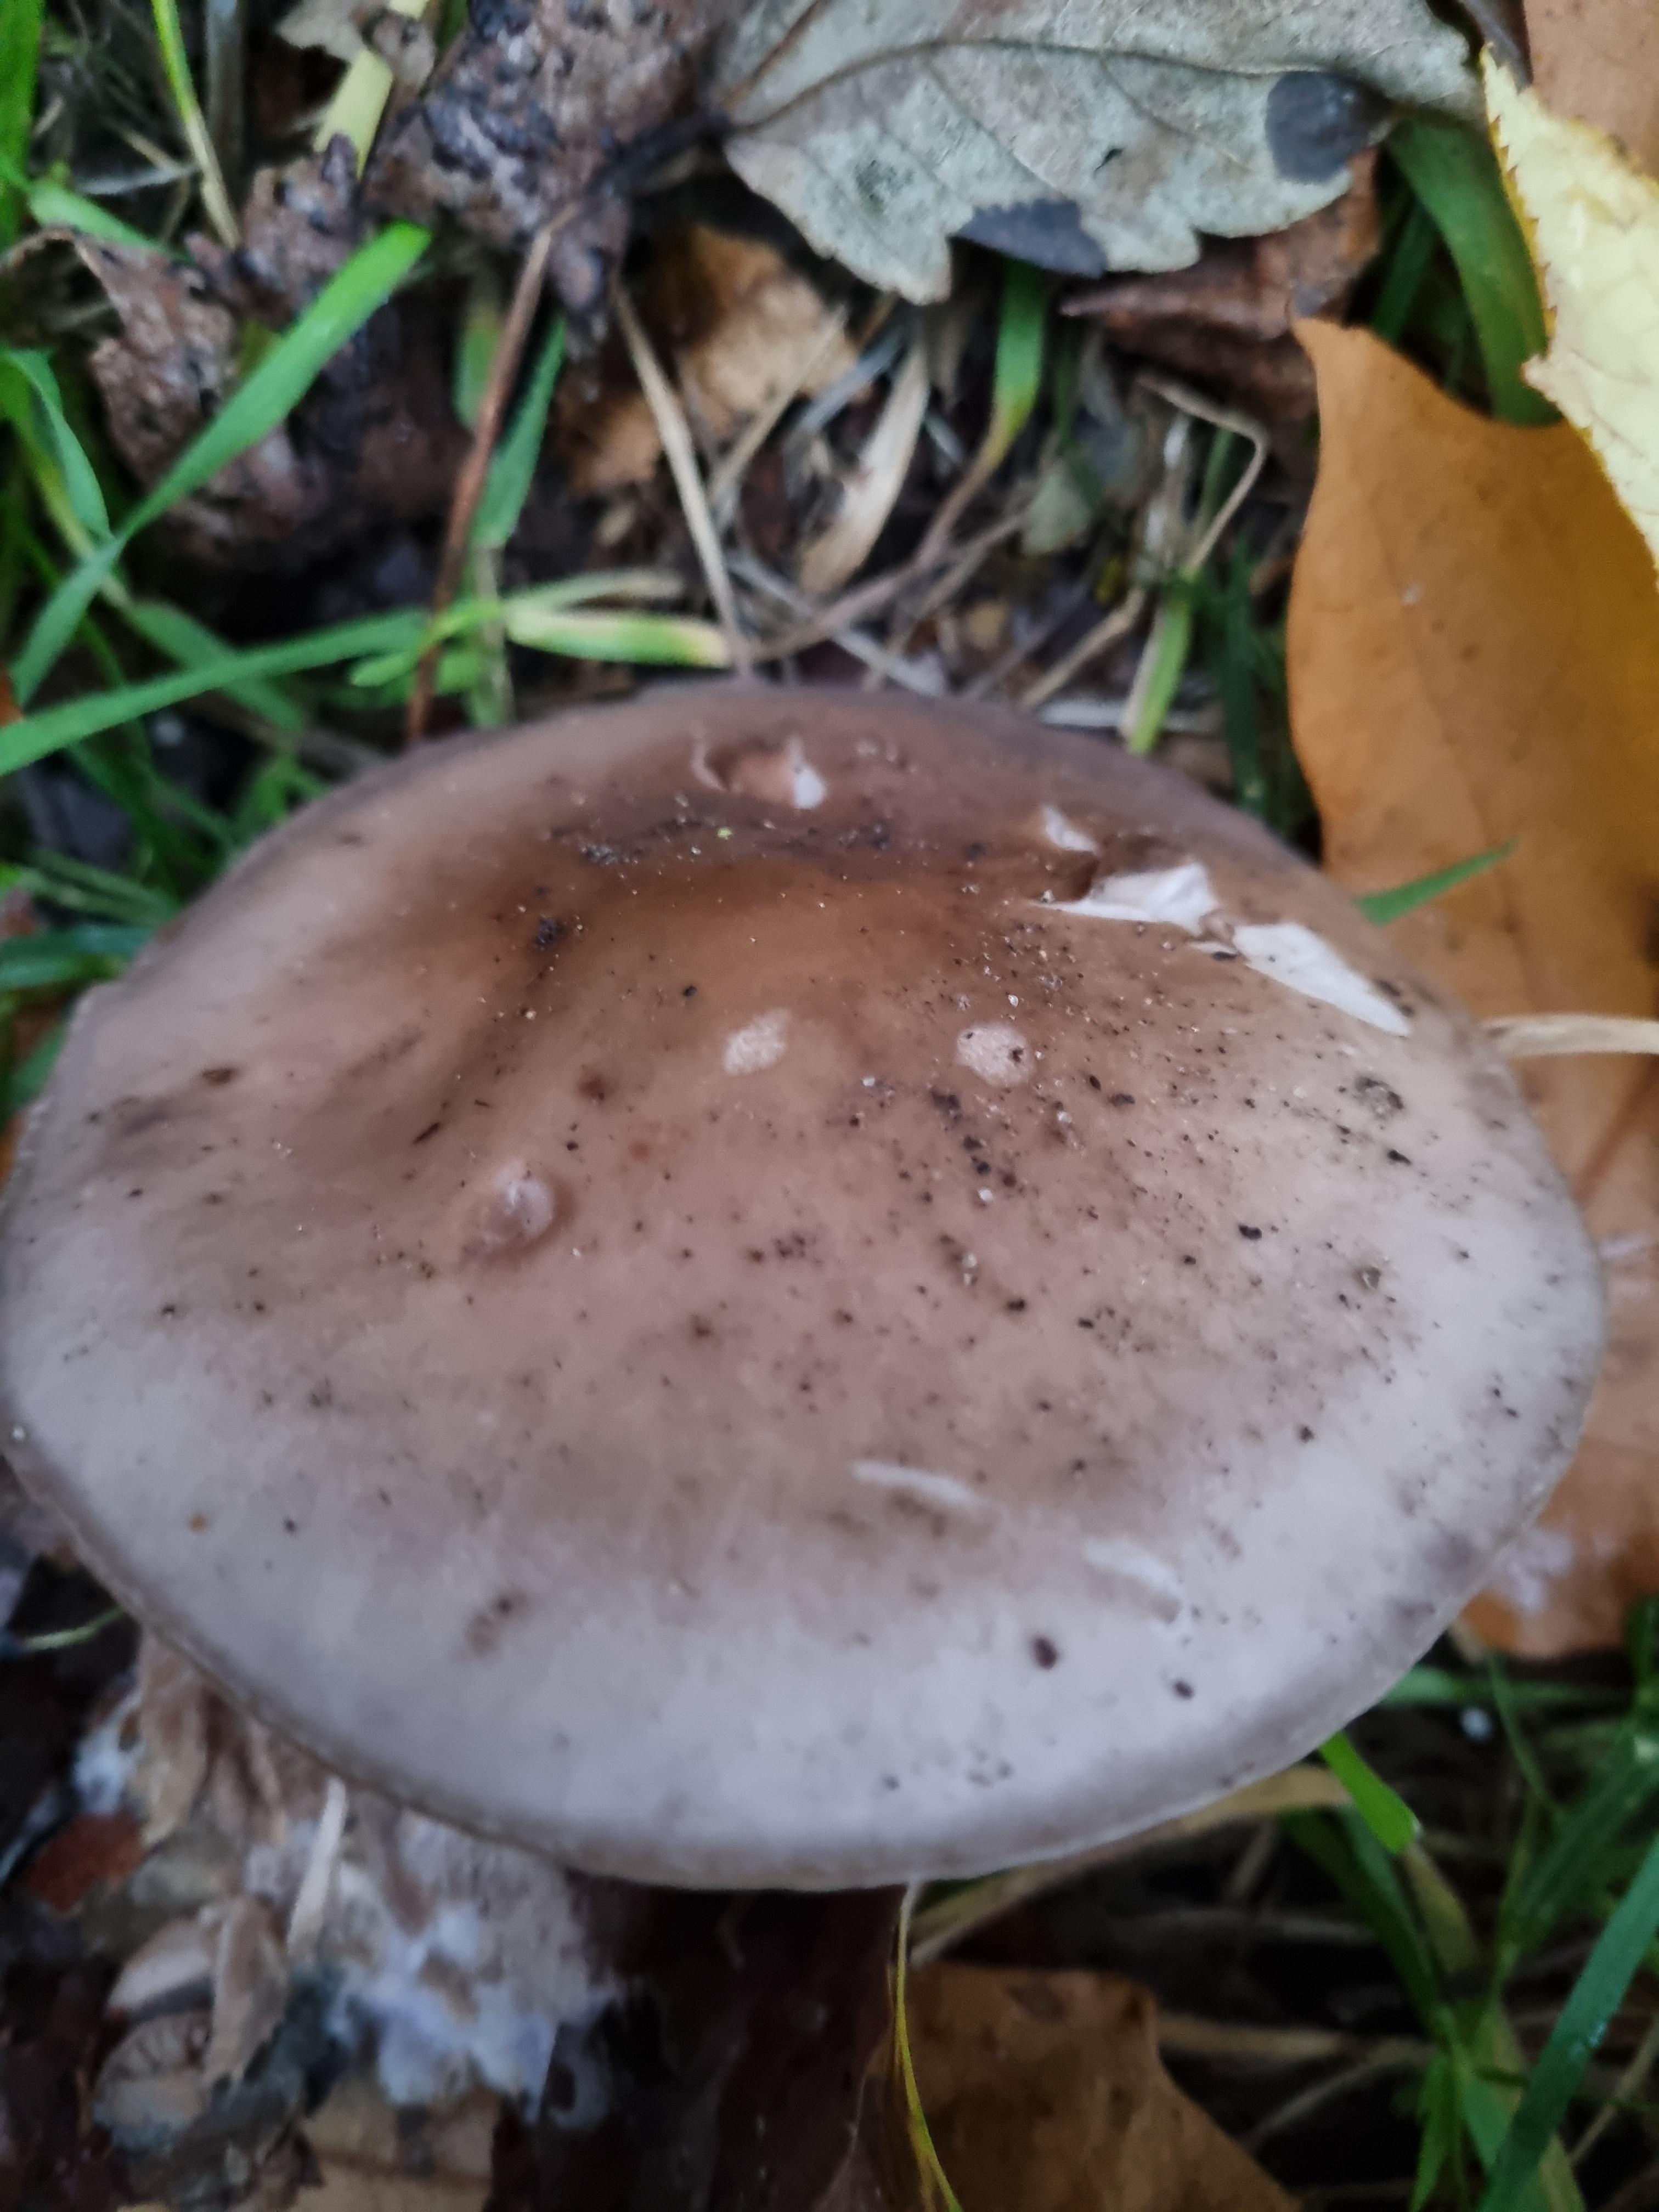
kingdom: Fungi
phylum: Basidiomycota
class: Agaricomycetes
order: Agaricales
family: Tricholomataceae
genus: Lepista
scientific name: Lepista nuda
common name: violet hekseringshat
